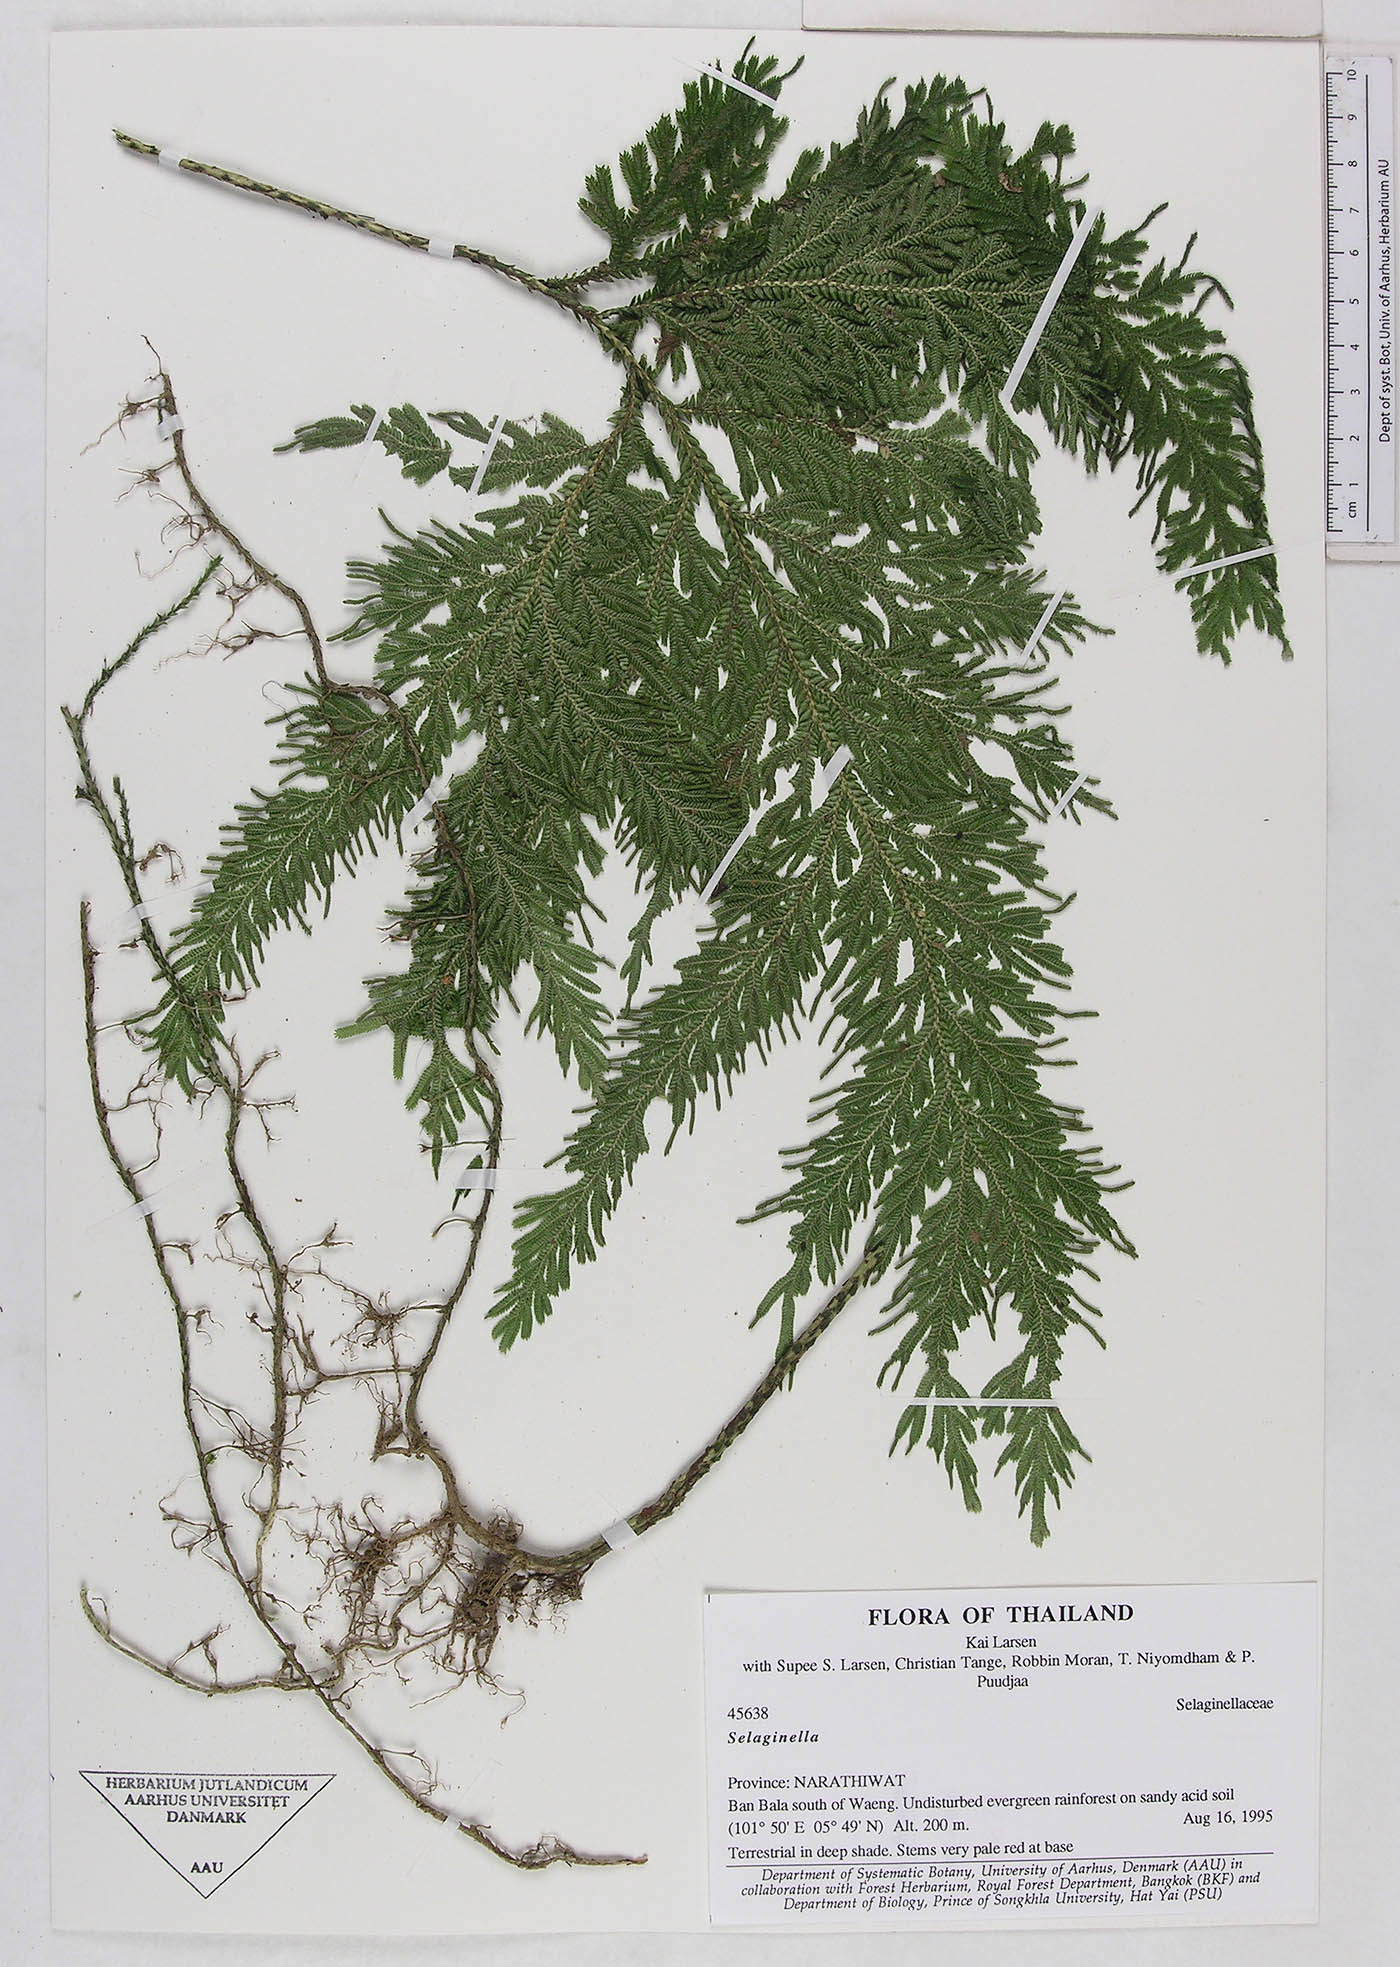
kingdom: Plantae
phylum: Tracheophyta
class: Lycopodiopsida
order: Selaginellales
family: Selaginellaceae
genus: Selaginella
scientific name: Selaginella
